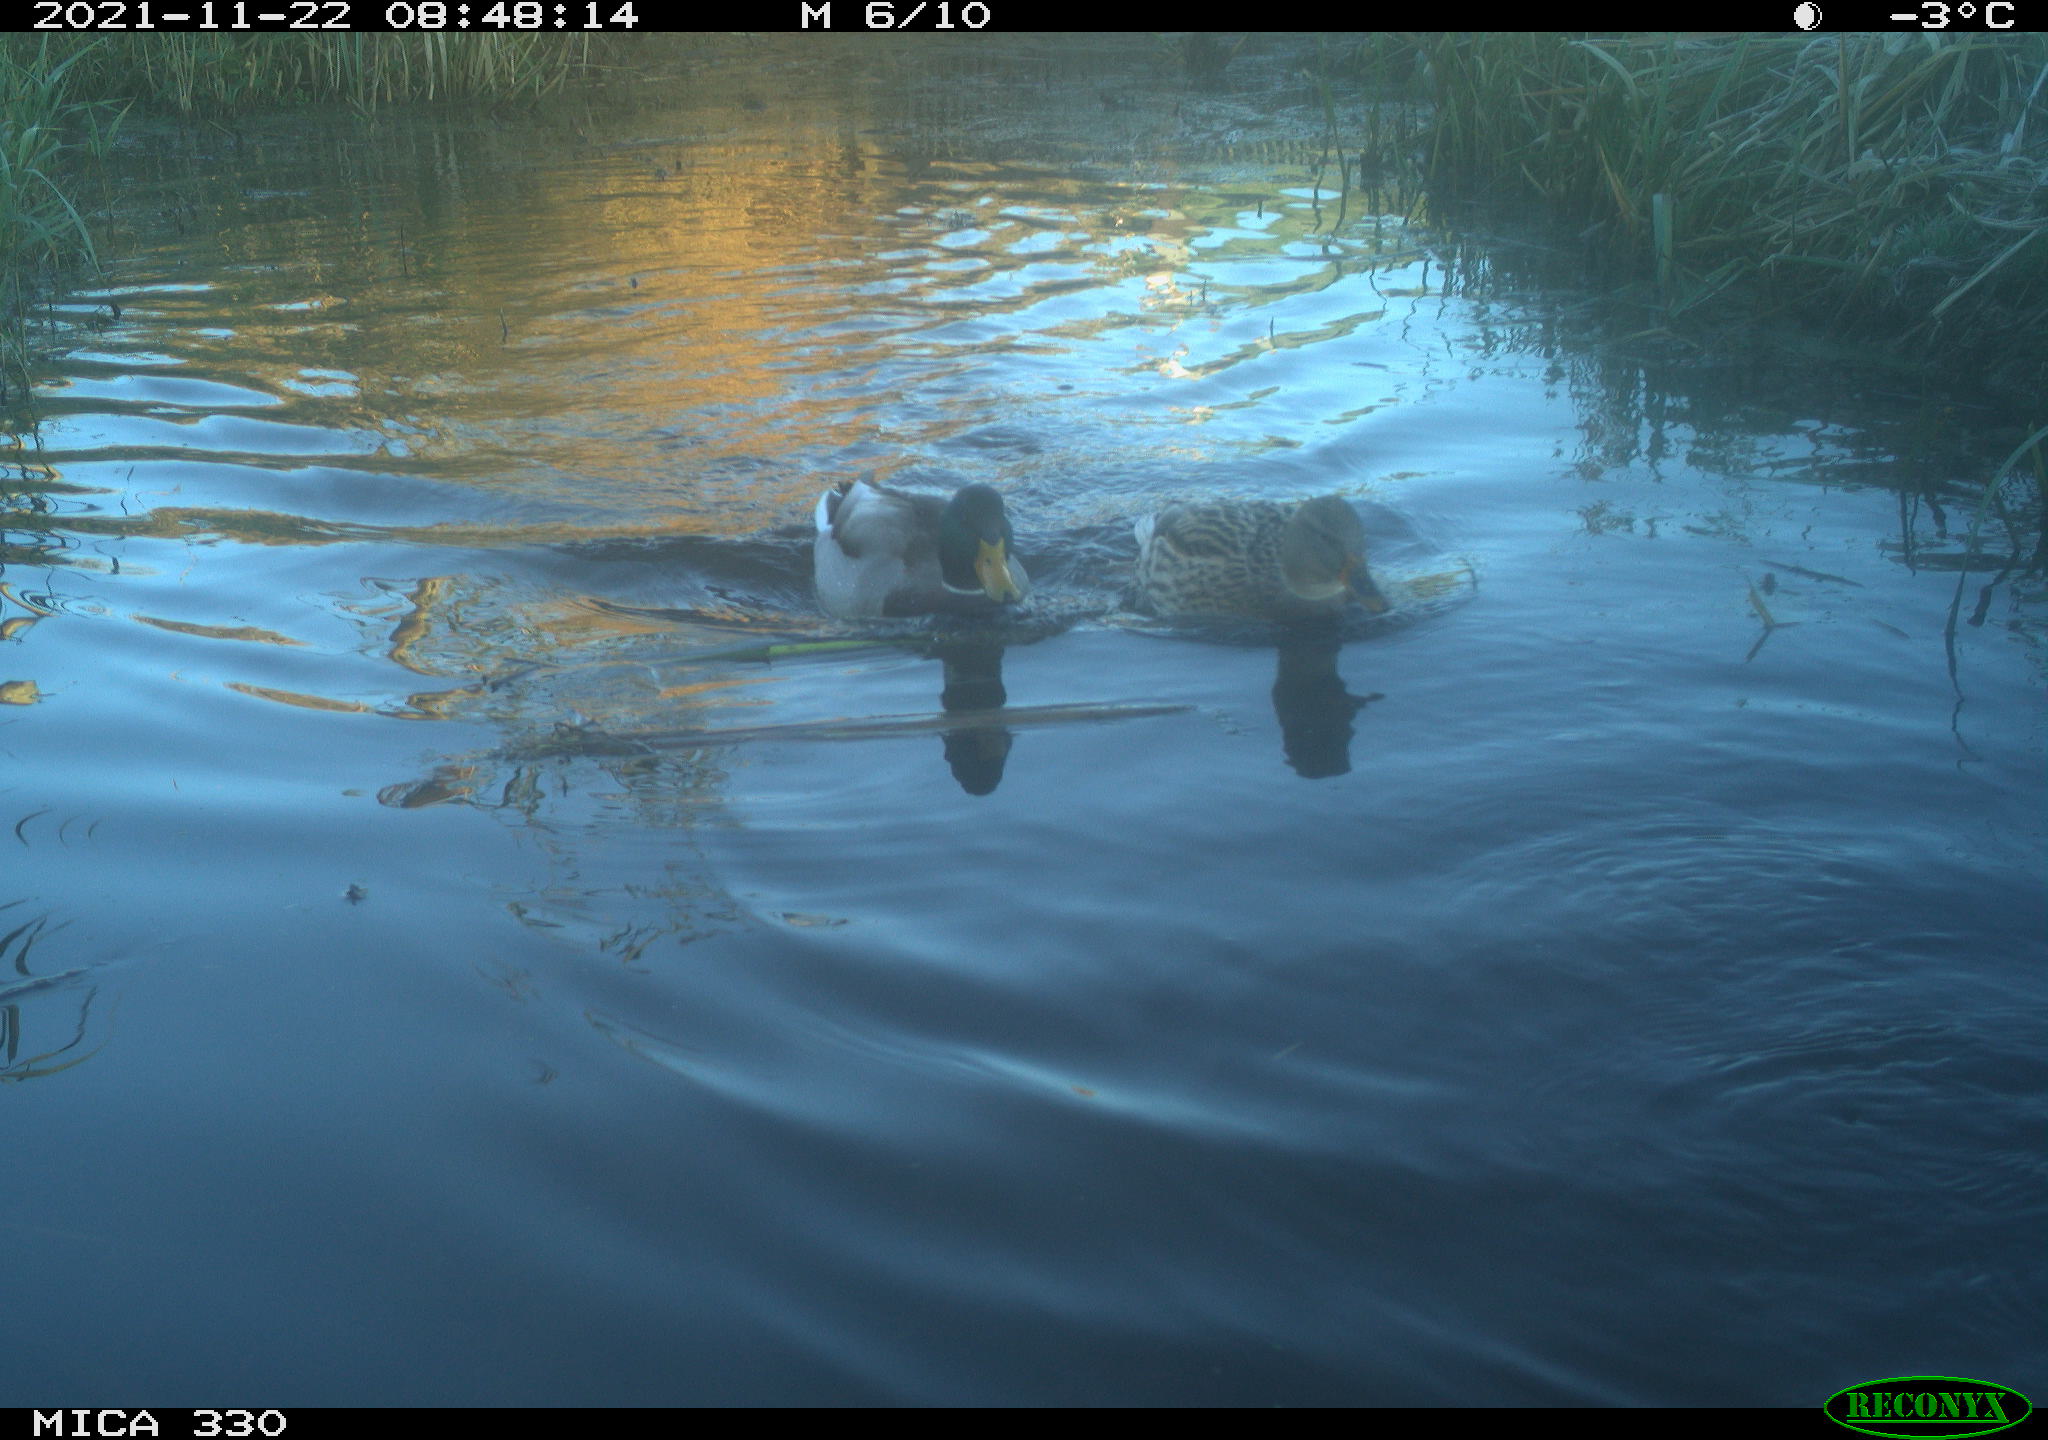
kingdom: Animalia
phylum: Chordata
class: Aves
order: Anseriformes
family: Anatidae
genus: Anas
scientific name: Anas platyrhynchos
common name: Mallard
